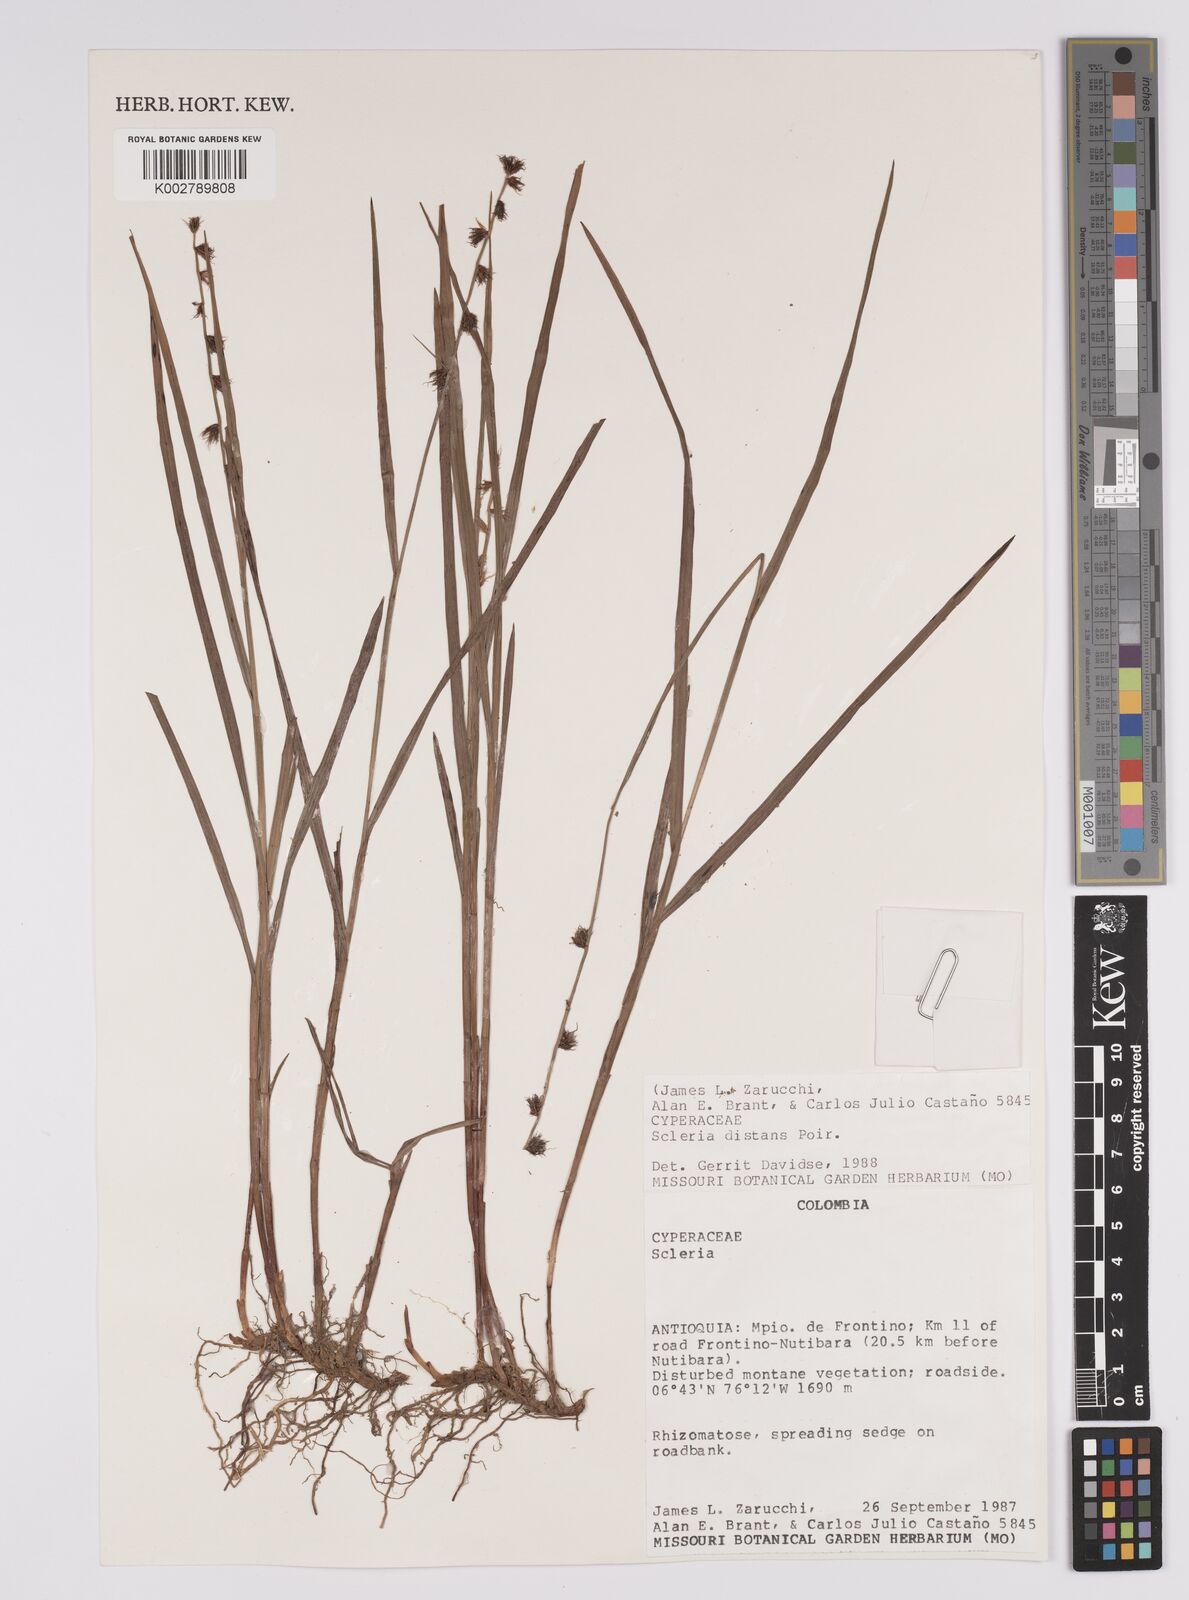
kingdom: Plantae
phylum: Tracheophyta
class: Liliopsida
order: Poales
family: Cyperaceae
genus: Scleria
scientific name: Scleria distans
